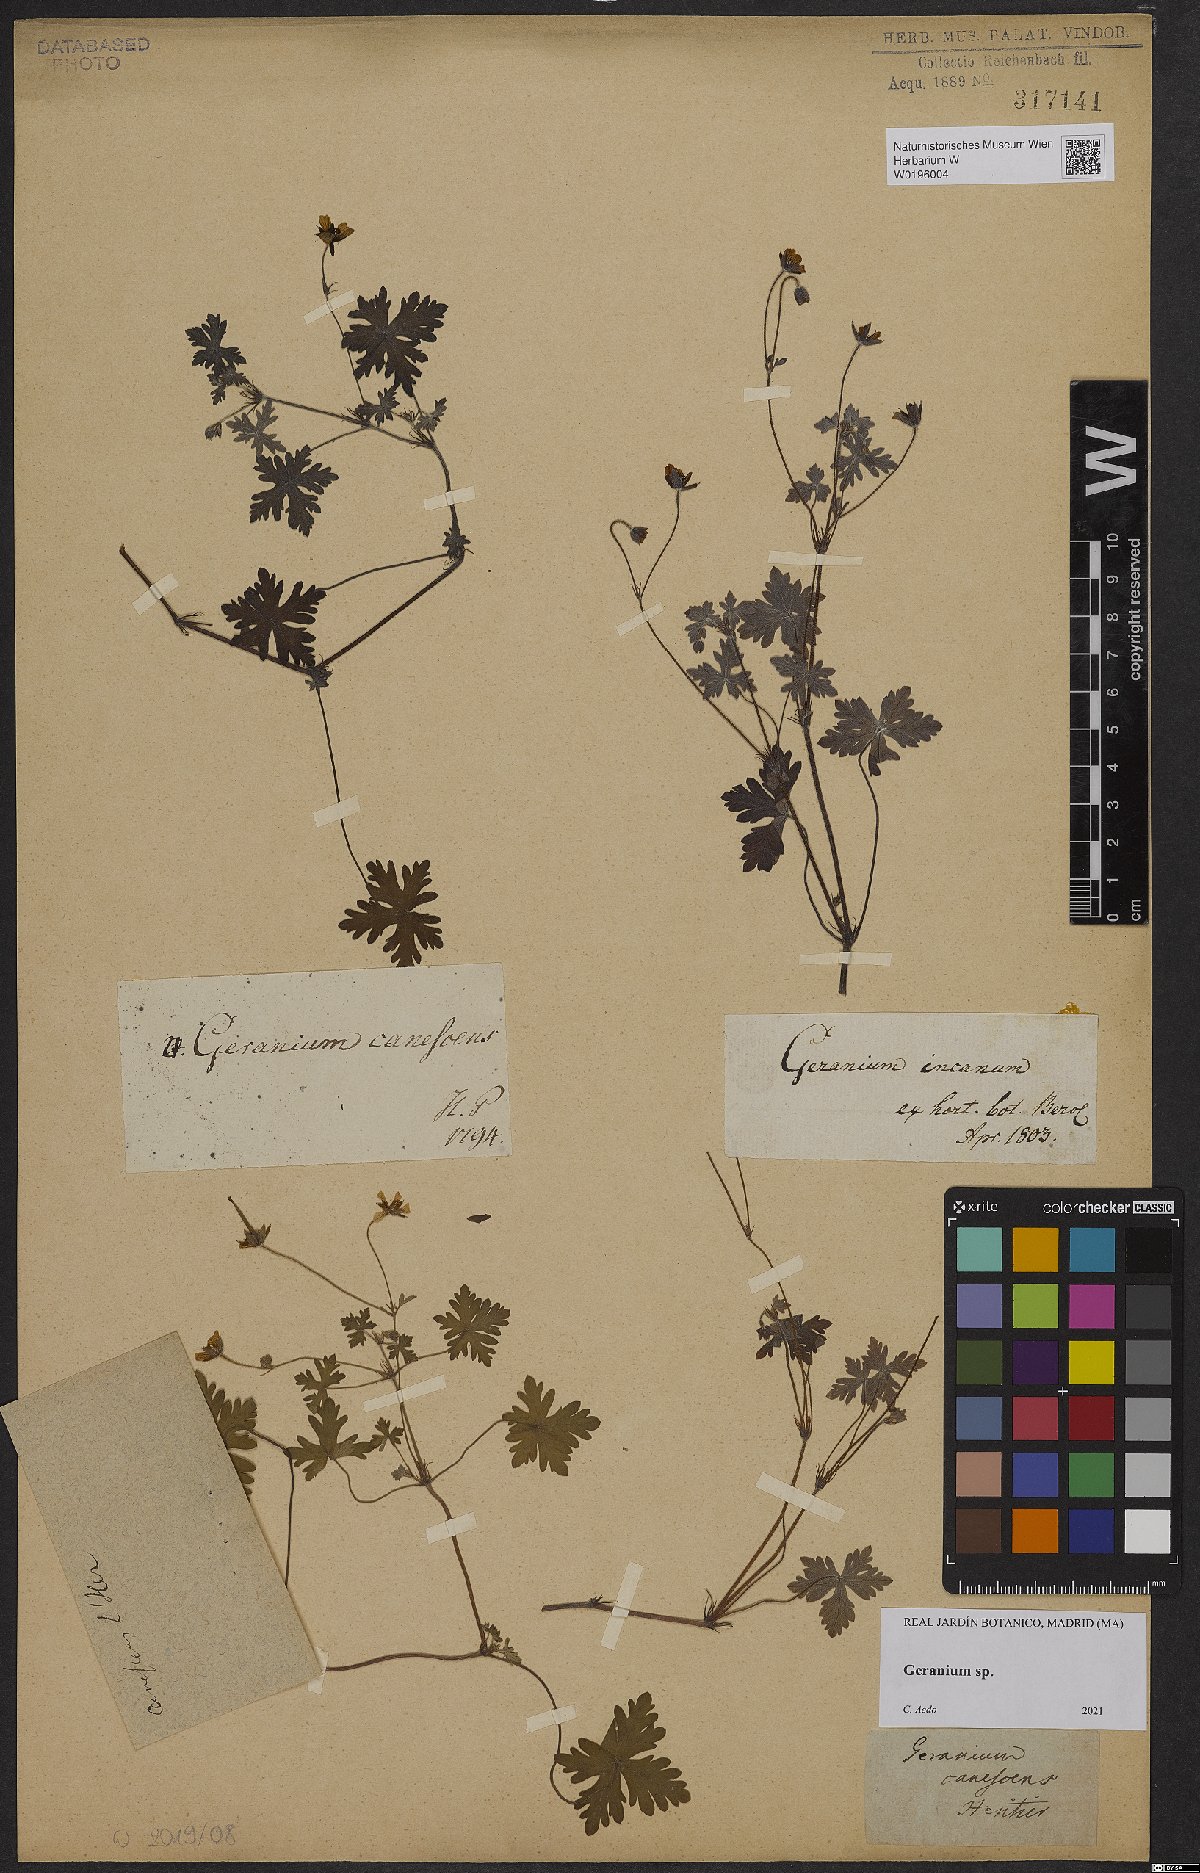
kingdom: Plantae
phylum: Tracheophyta
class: Magnoliopsida
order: Geraniales
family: Geraniaceae
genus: Geranium
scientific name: Geranium
